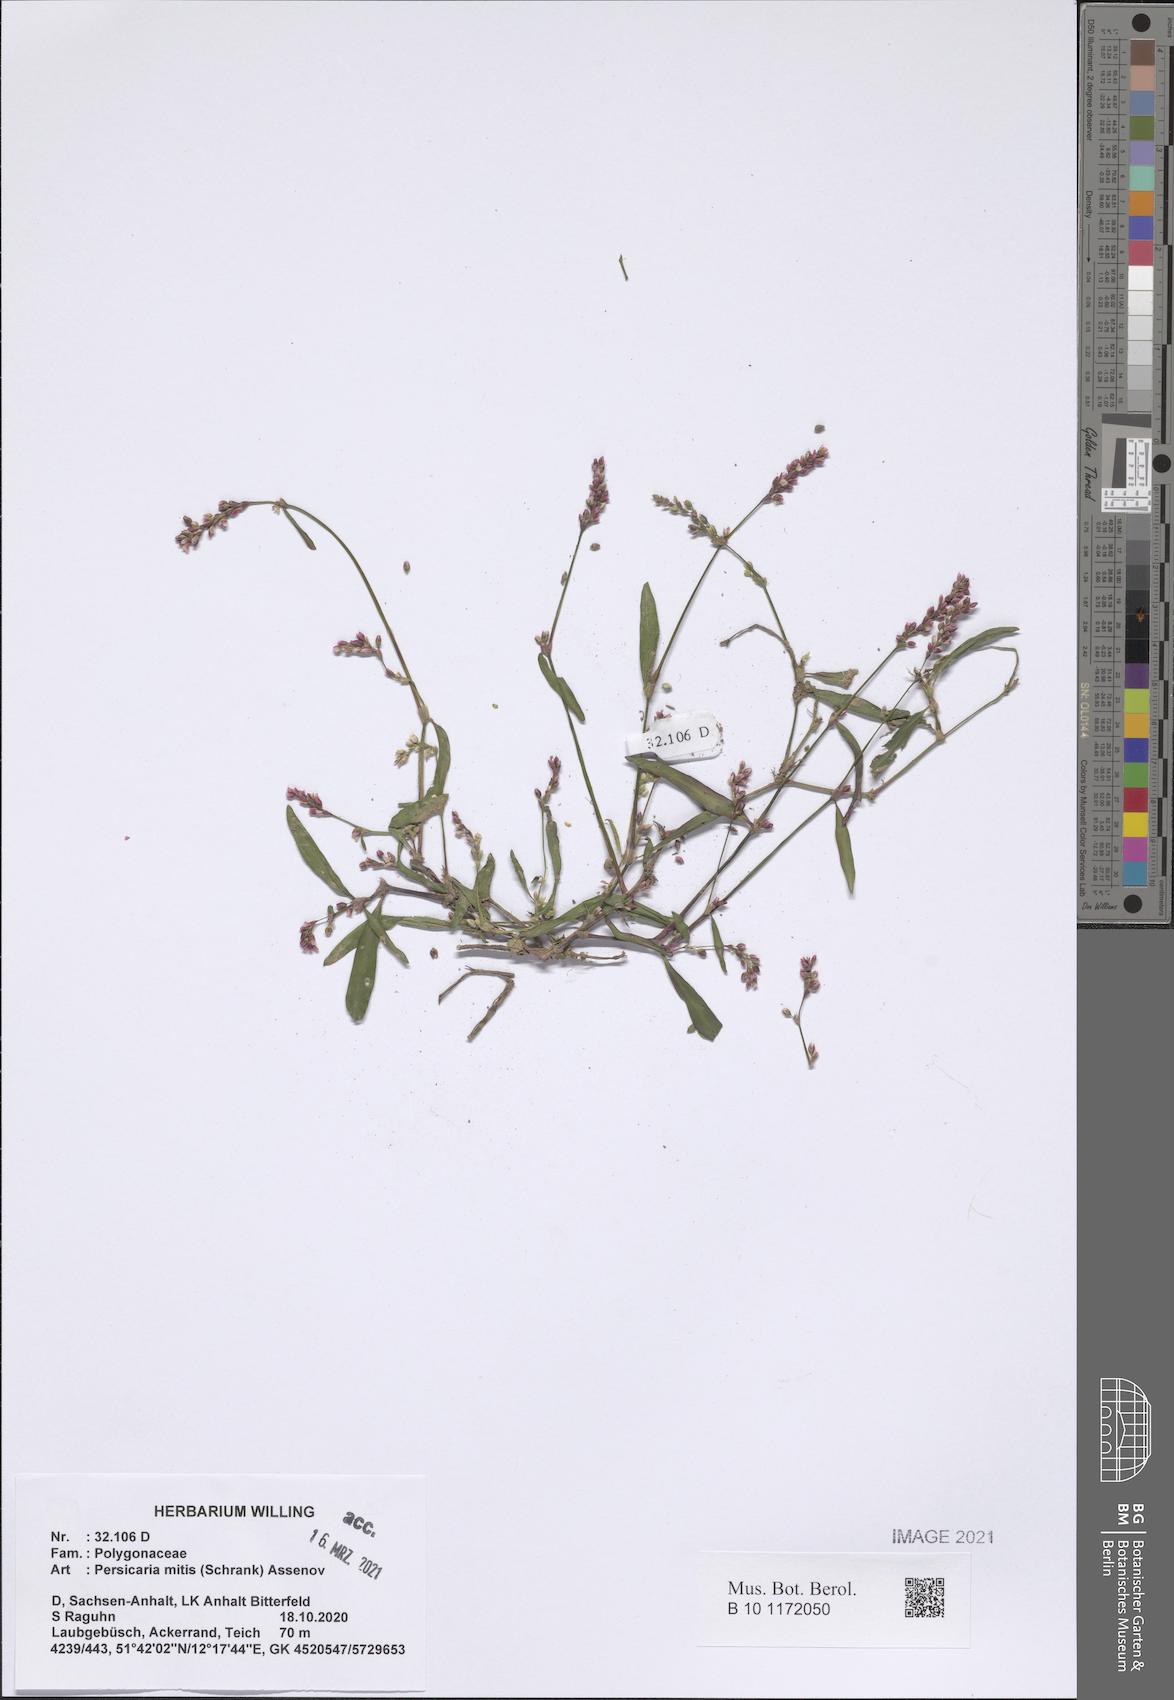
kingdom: Plantae
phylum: Tracheophyta
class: Magnoliopsida
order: Caryophyllales
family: Polygonaceae
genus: Persicaria
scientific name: Persicaria mitis
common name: Tasteless water-pepper
